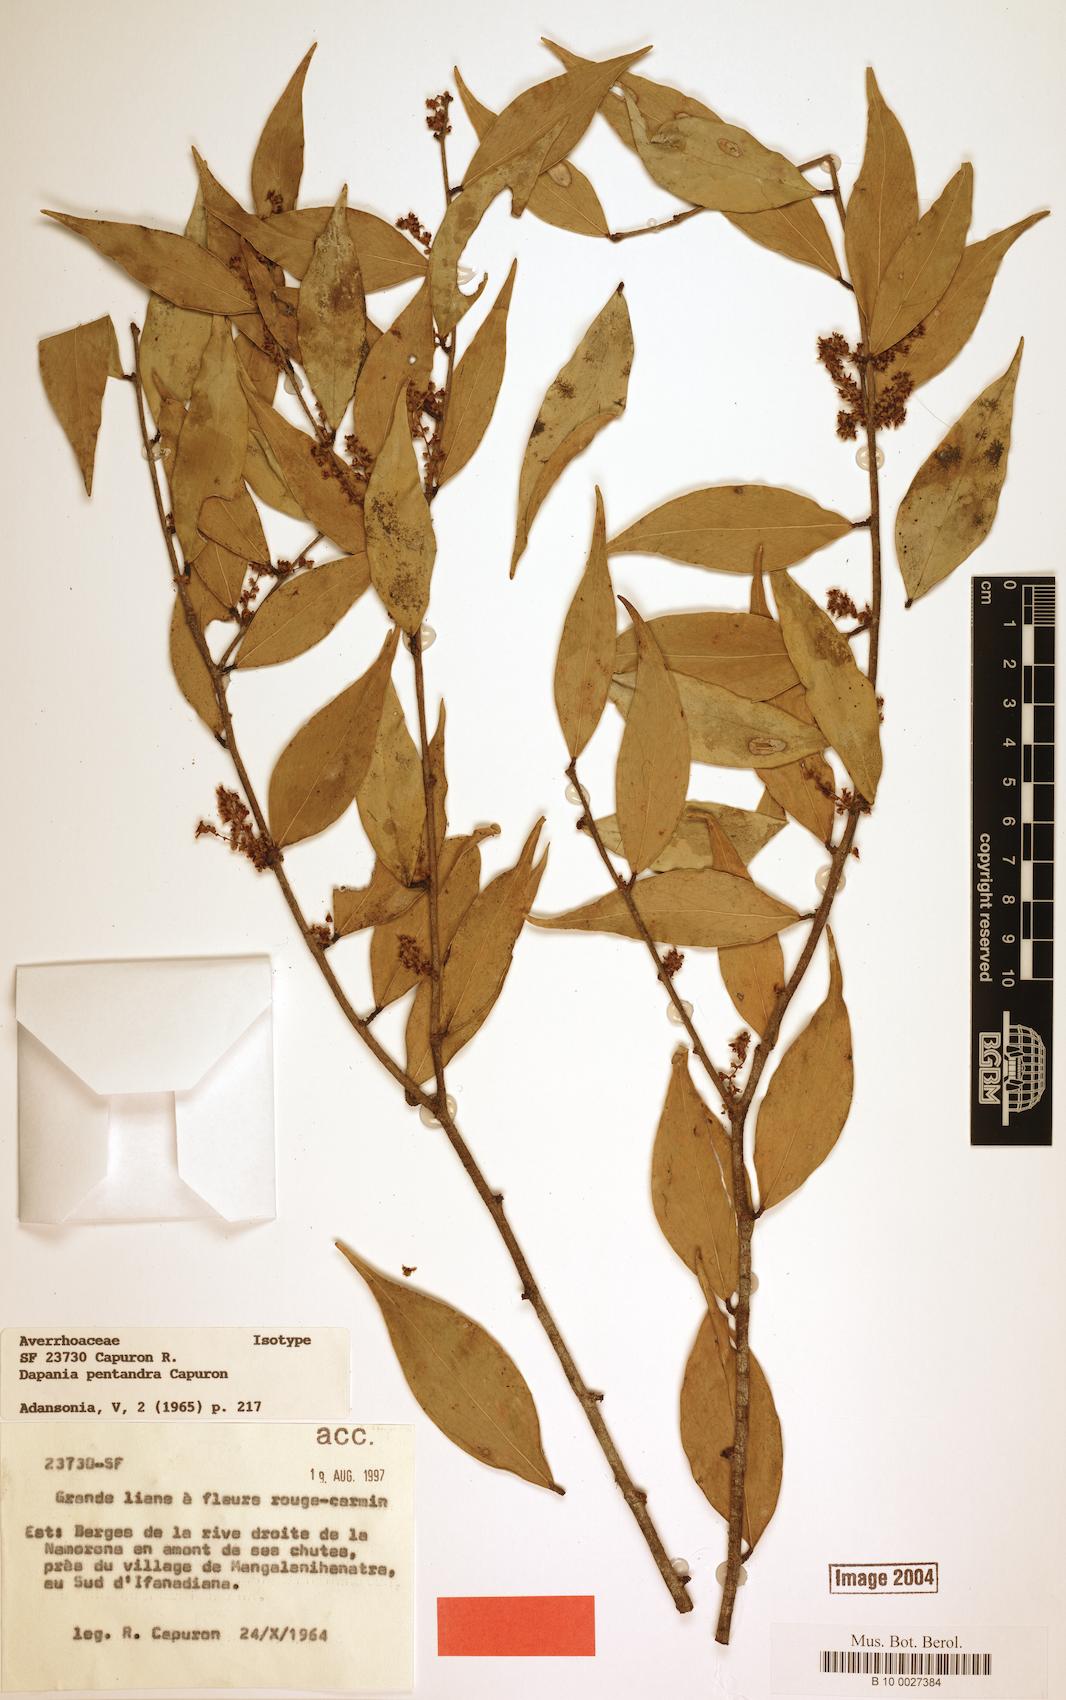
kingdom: Plantae
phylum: Tracheophyta
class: Magnoliopsida
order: Oxalidales
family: Oxalidaceae
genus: Dapania
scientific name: Dapania pentandra
